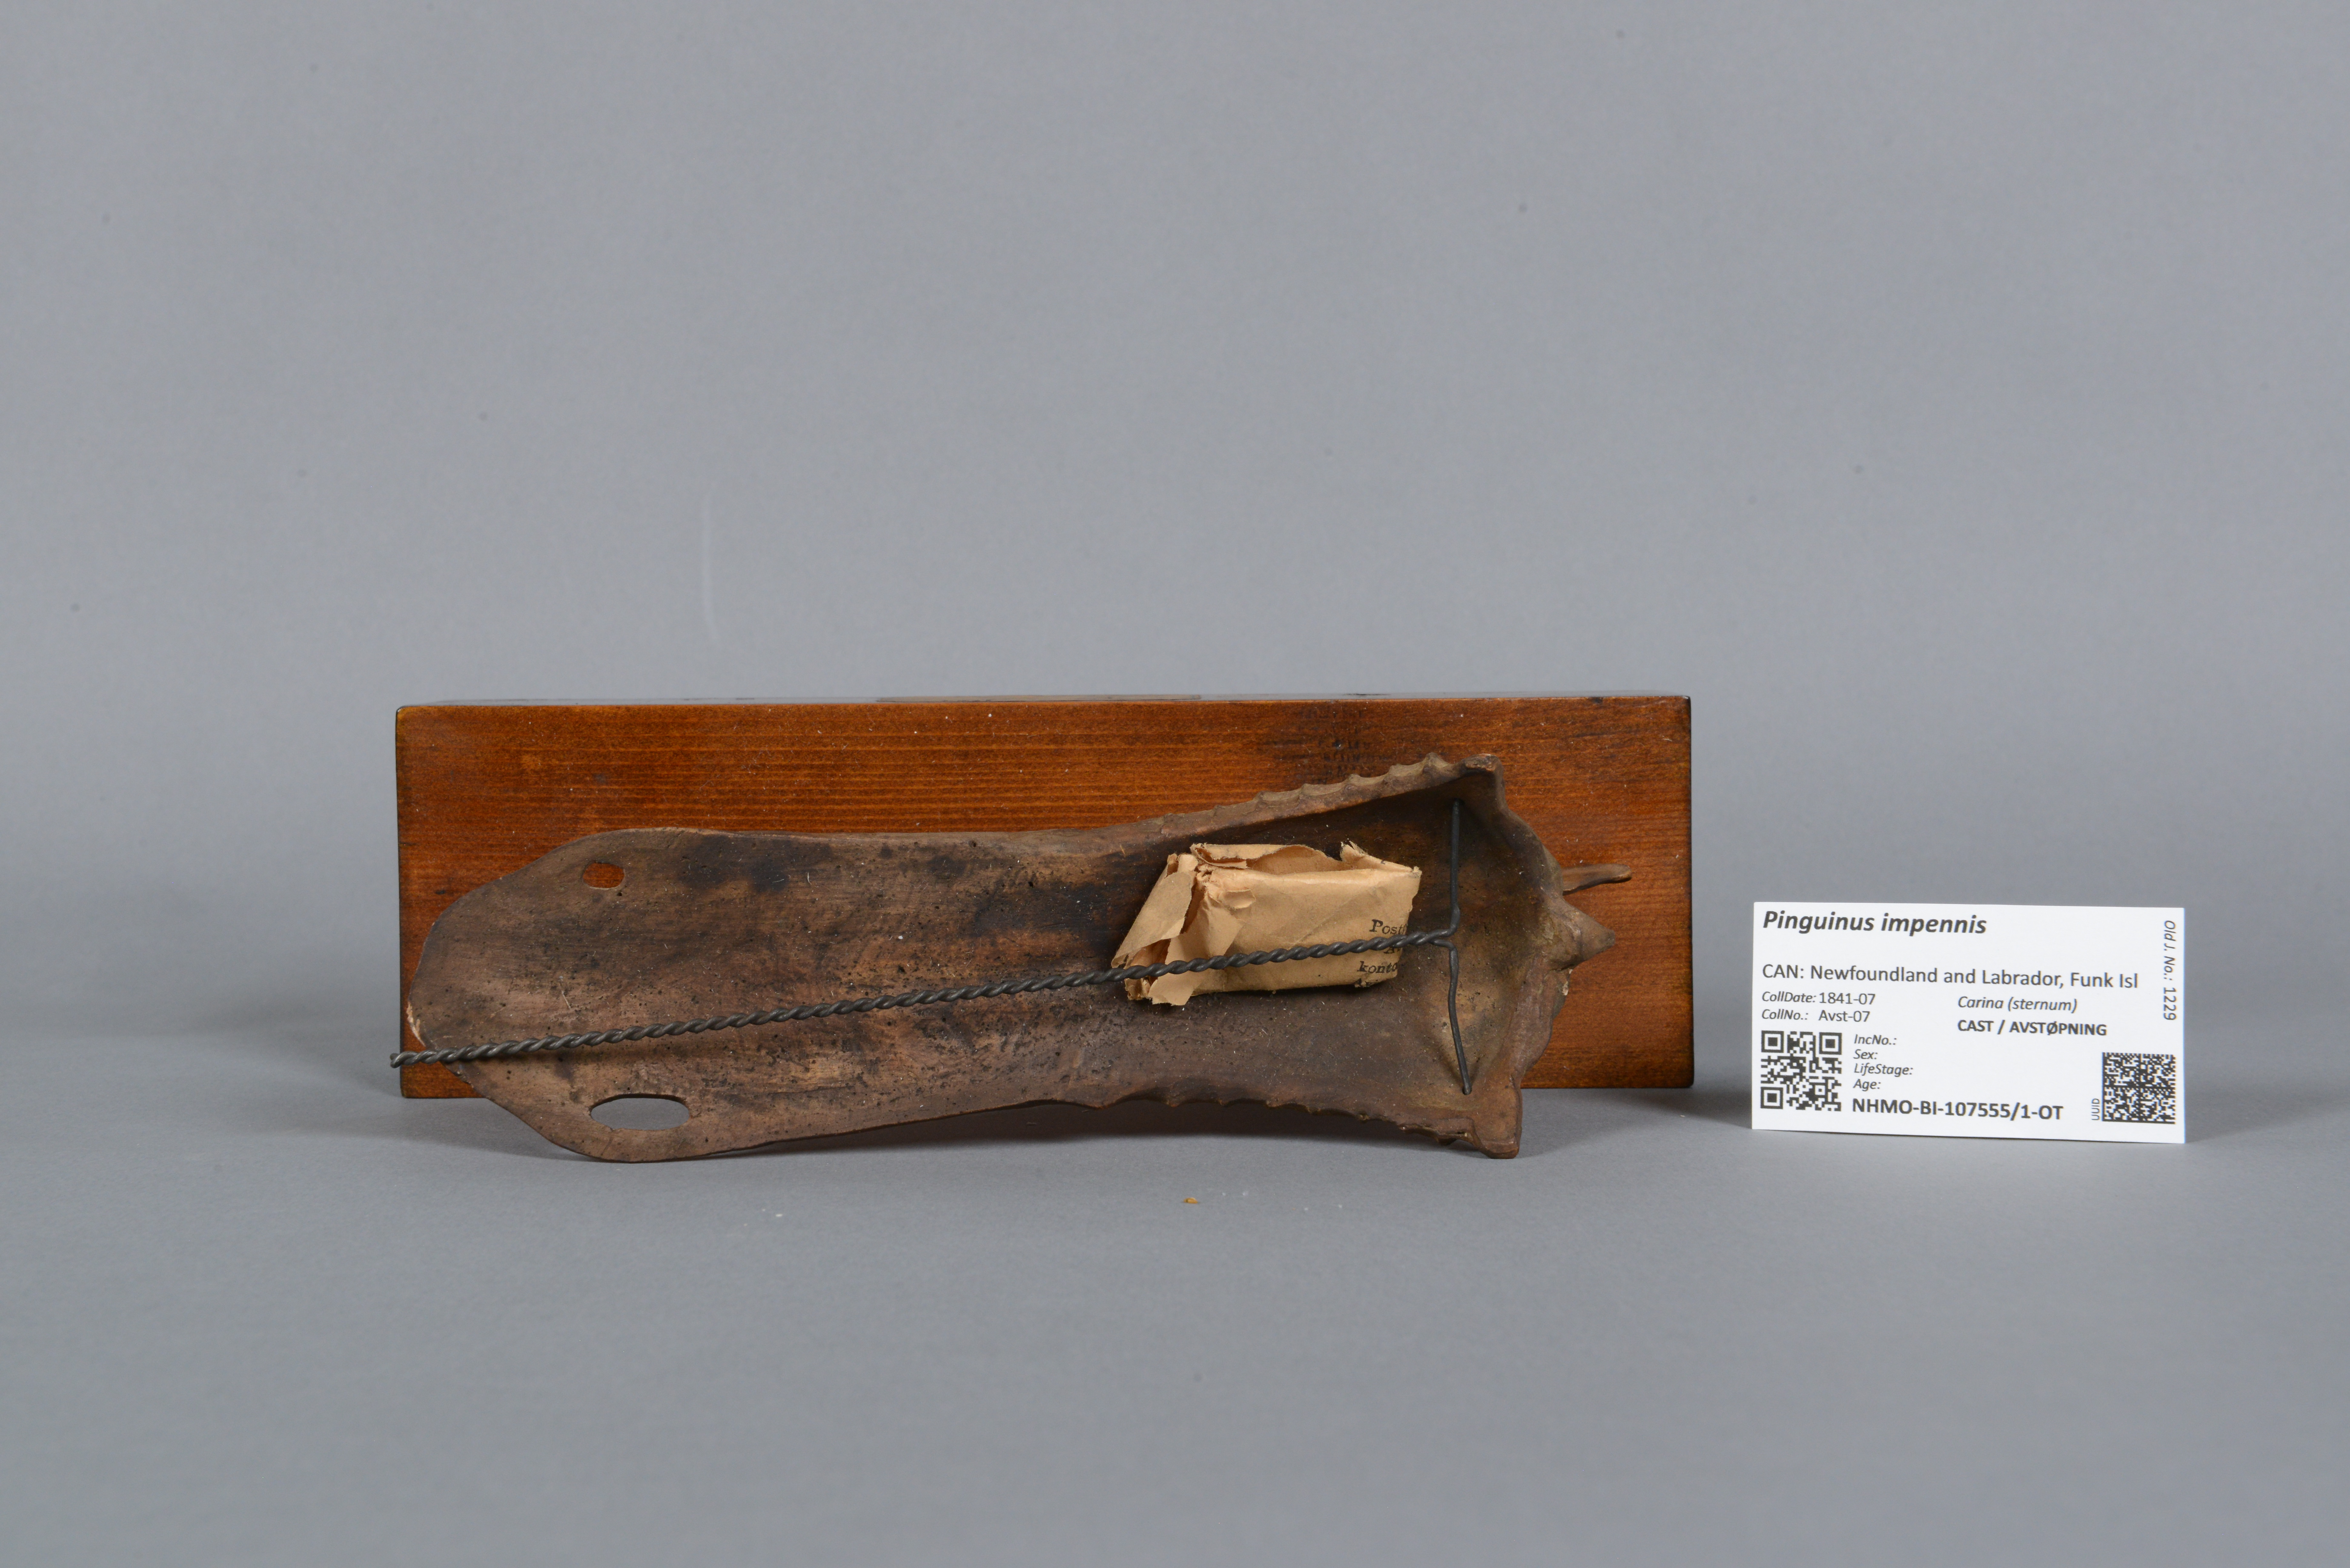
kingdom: Animalia
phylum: Chordata
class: Aves
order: Charadriiformes
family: Alcidae
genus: Pinguinus
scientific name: Pinguinus impennis
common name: Great auk
